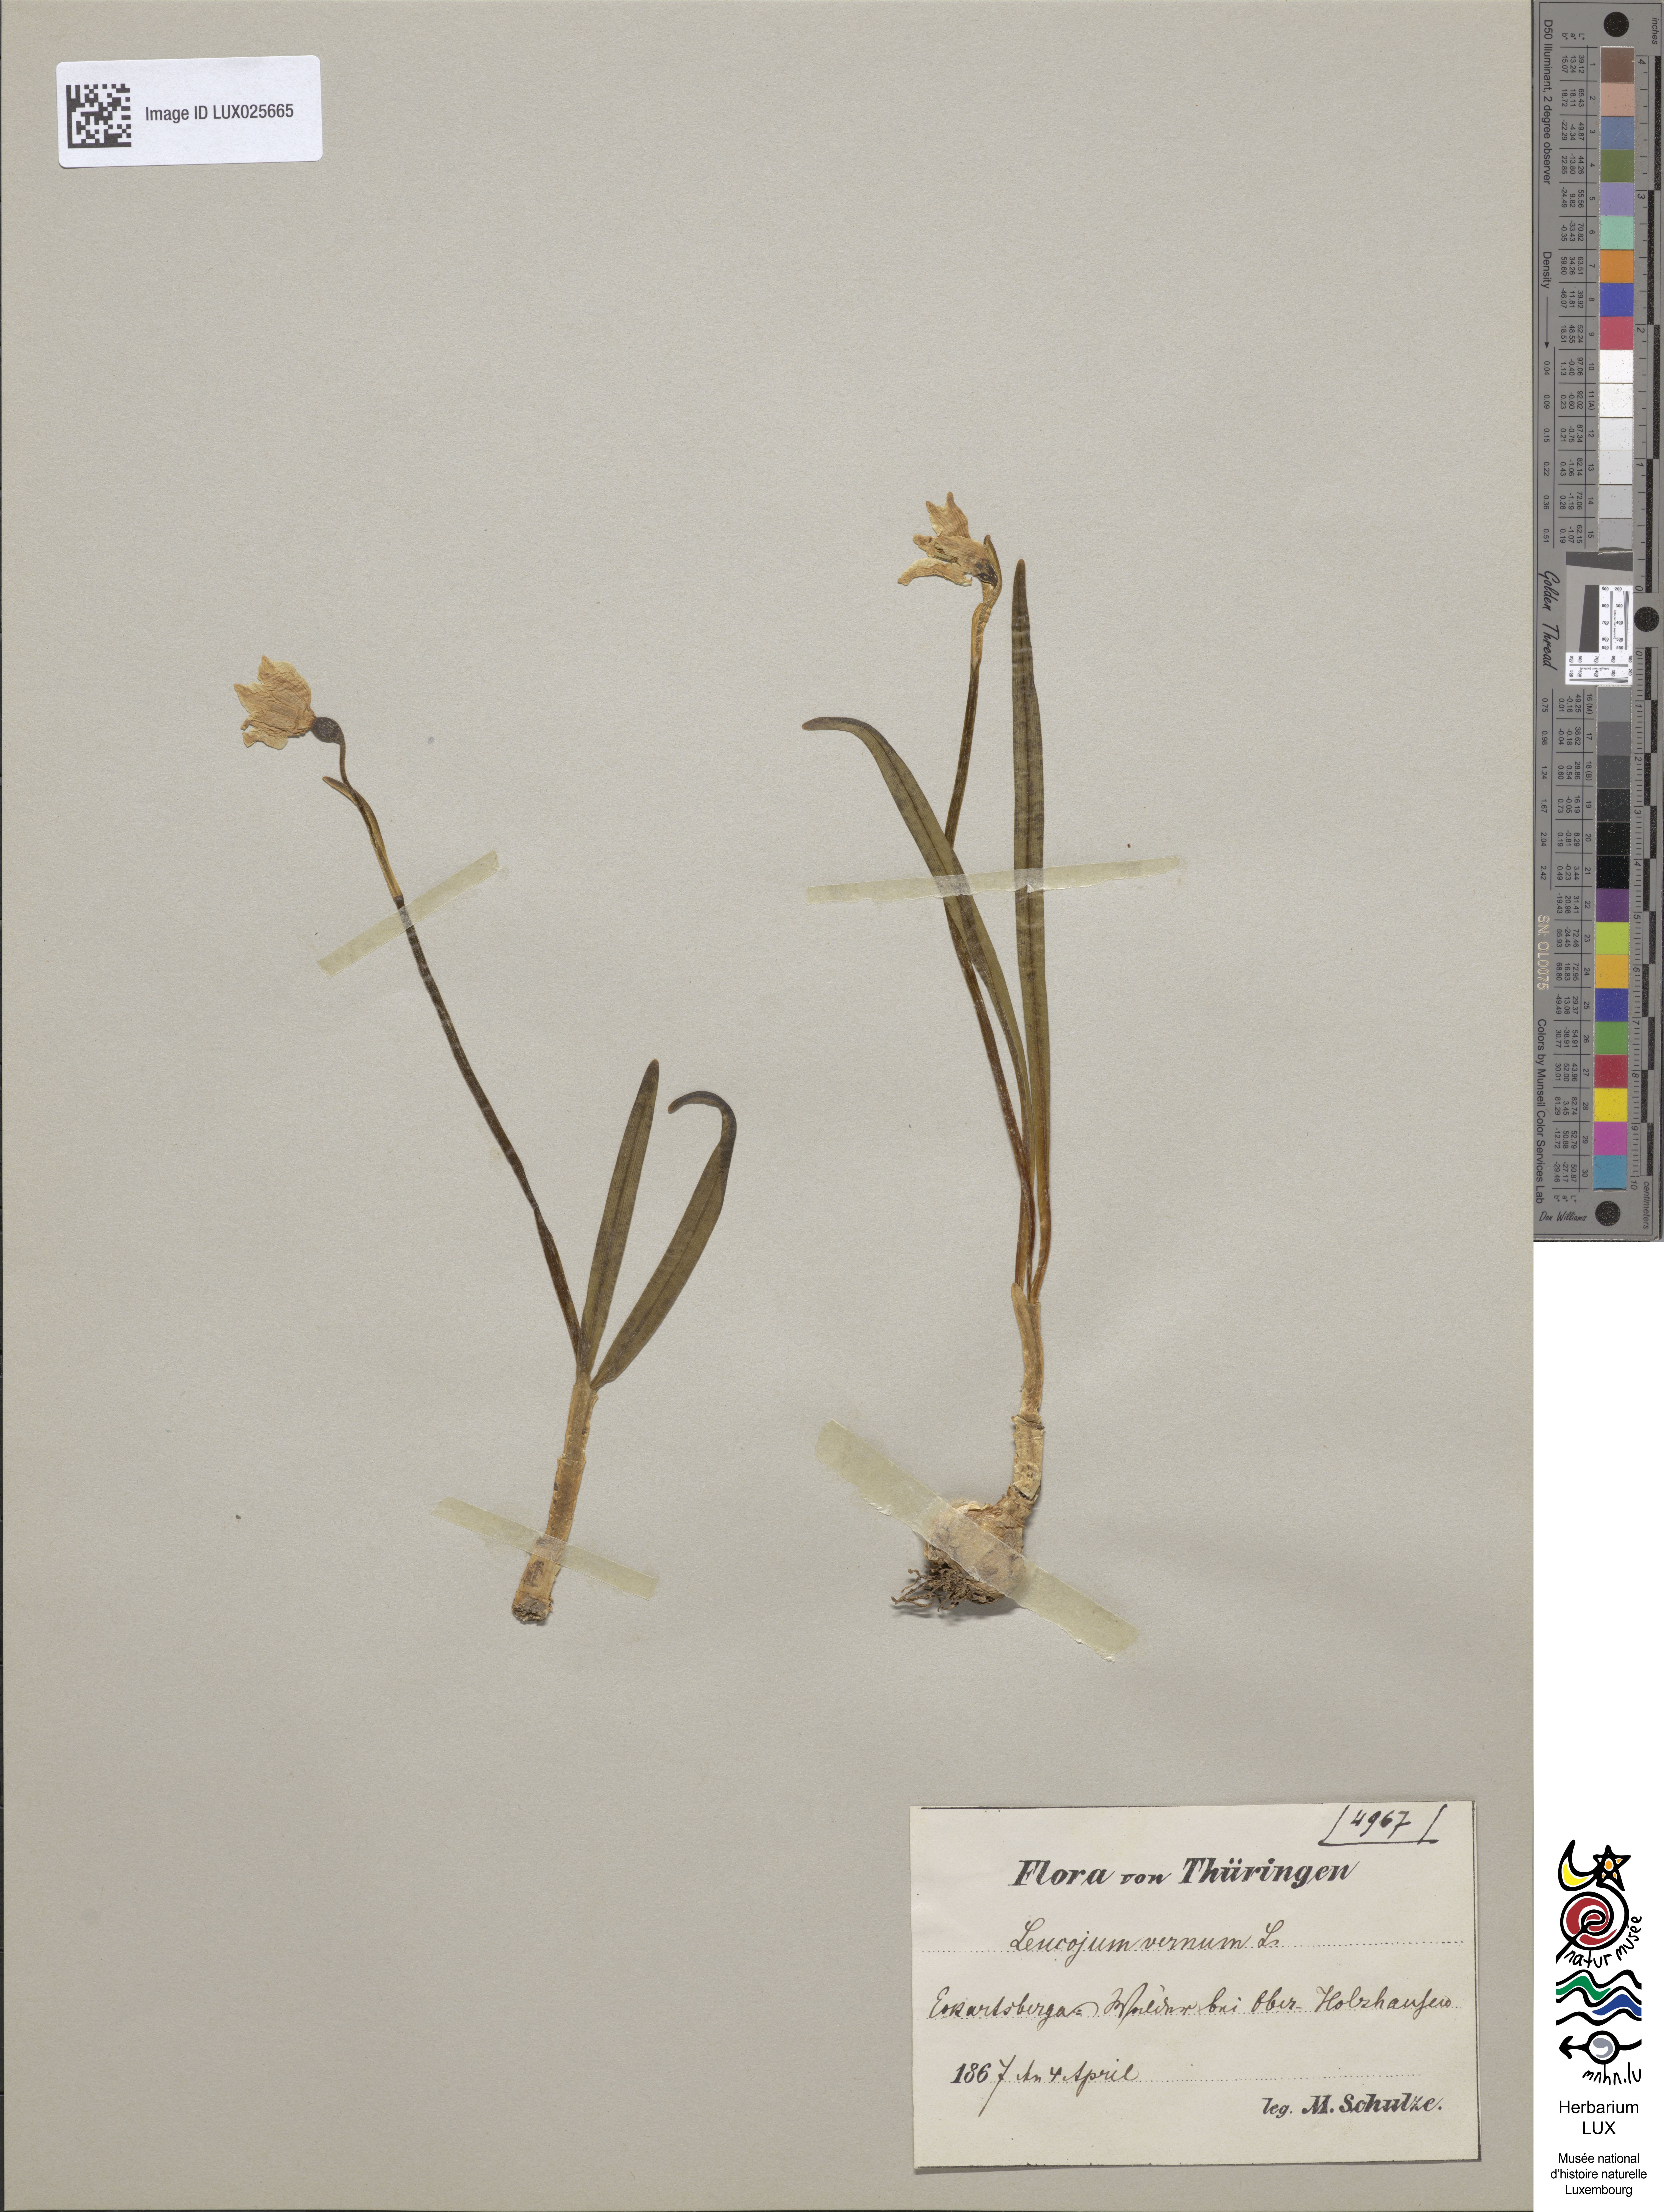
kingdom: Plantae
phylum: Tracheophyta
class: Liliopsida
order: Asparagales
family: Amaryllidaceae
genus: Leucojum
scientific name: Leucojum vernum
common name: Spring snowflake
